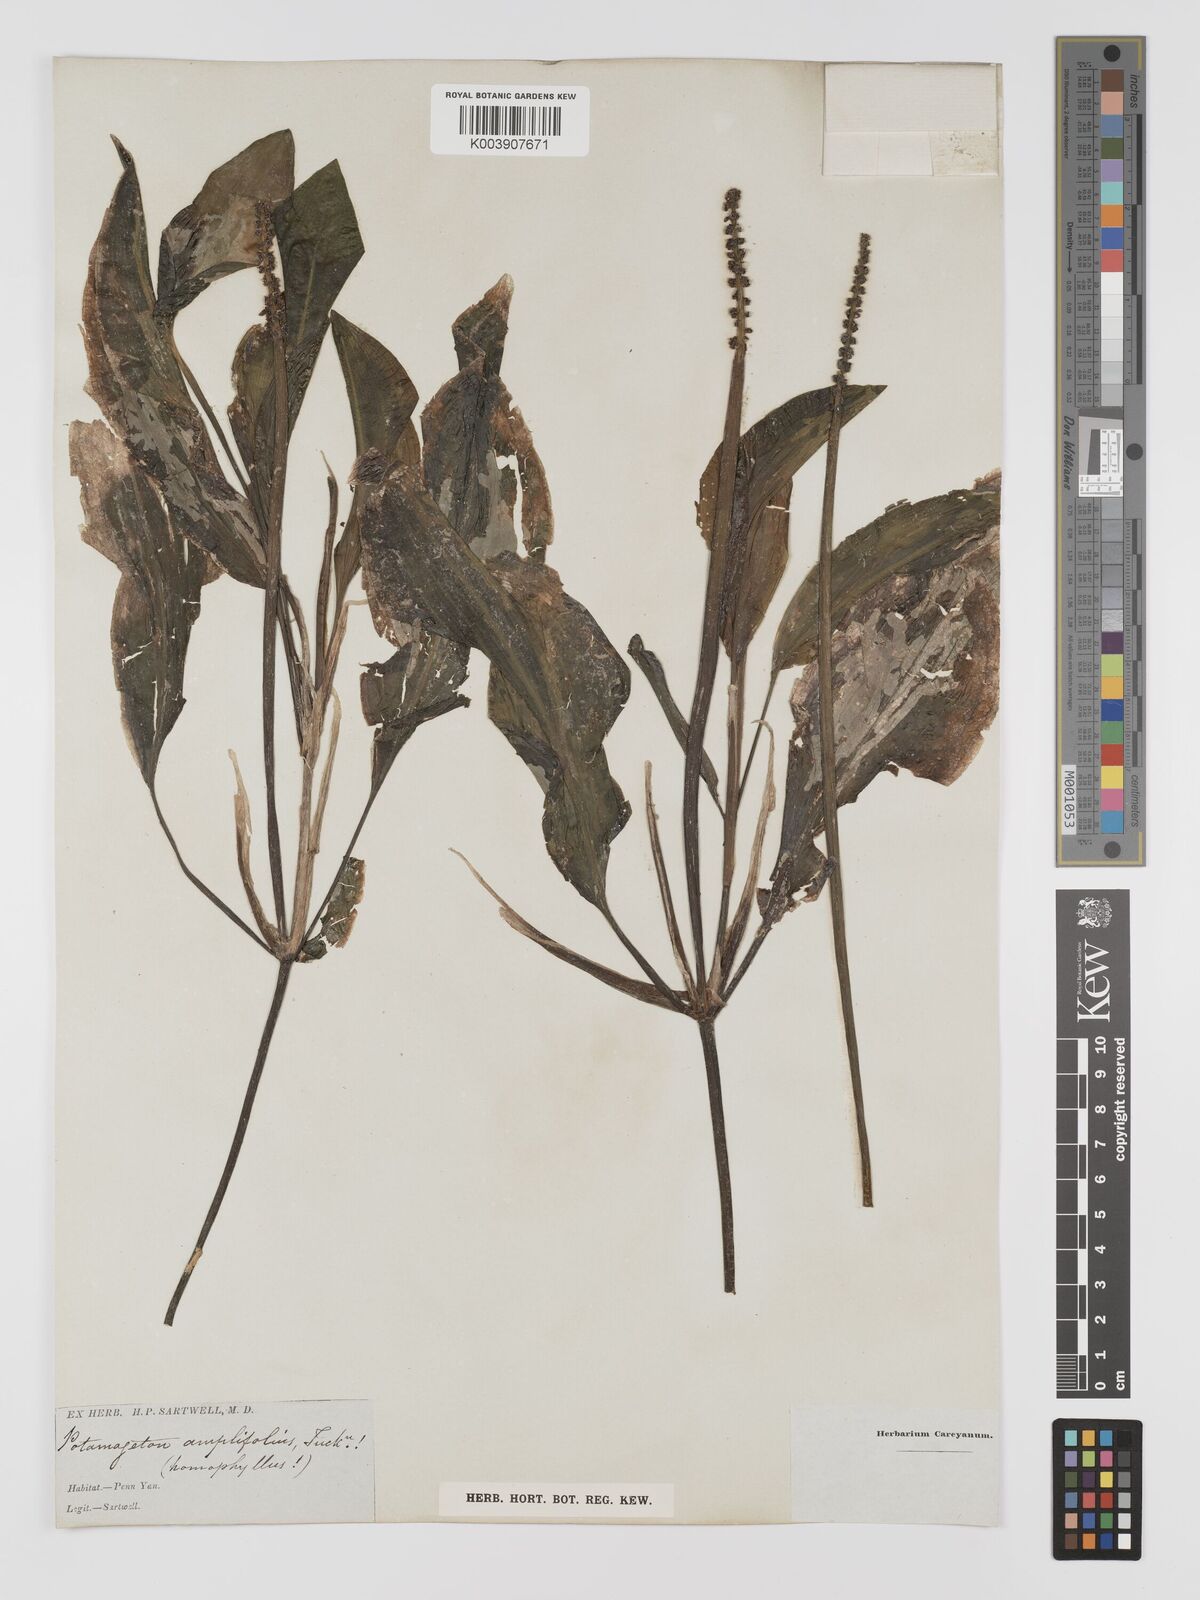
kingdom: Plantae
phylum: Tracheophyta
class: Liliopsida
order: Alismatales
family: Potamogetonaceae
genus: Potamogeton
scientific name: Potamogeton amplifolius
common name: Broad-leaved pondweed
